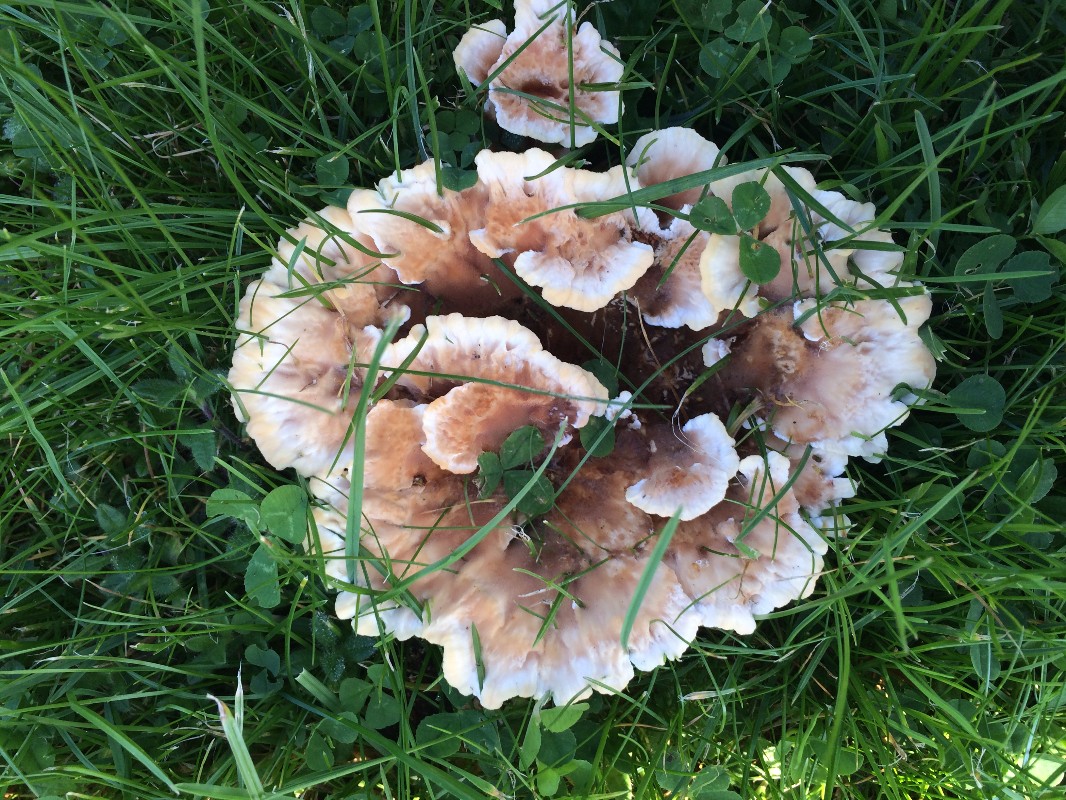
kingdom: Fungi
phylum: Basidiomycota
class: Agaricomycetes
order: Polyporales
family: Podoscyphaceae
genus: Abortiporus
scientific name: Abortiporus biennis
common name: rødmende pjalteporesvamp
